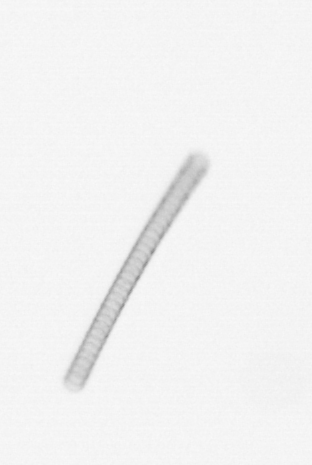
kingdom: Chromista
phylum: Ochrophyta
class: Bacillariophyceae
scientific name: Bacillariophyceae
